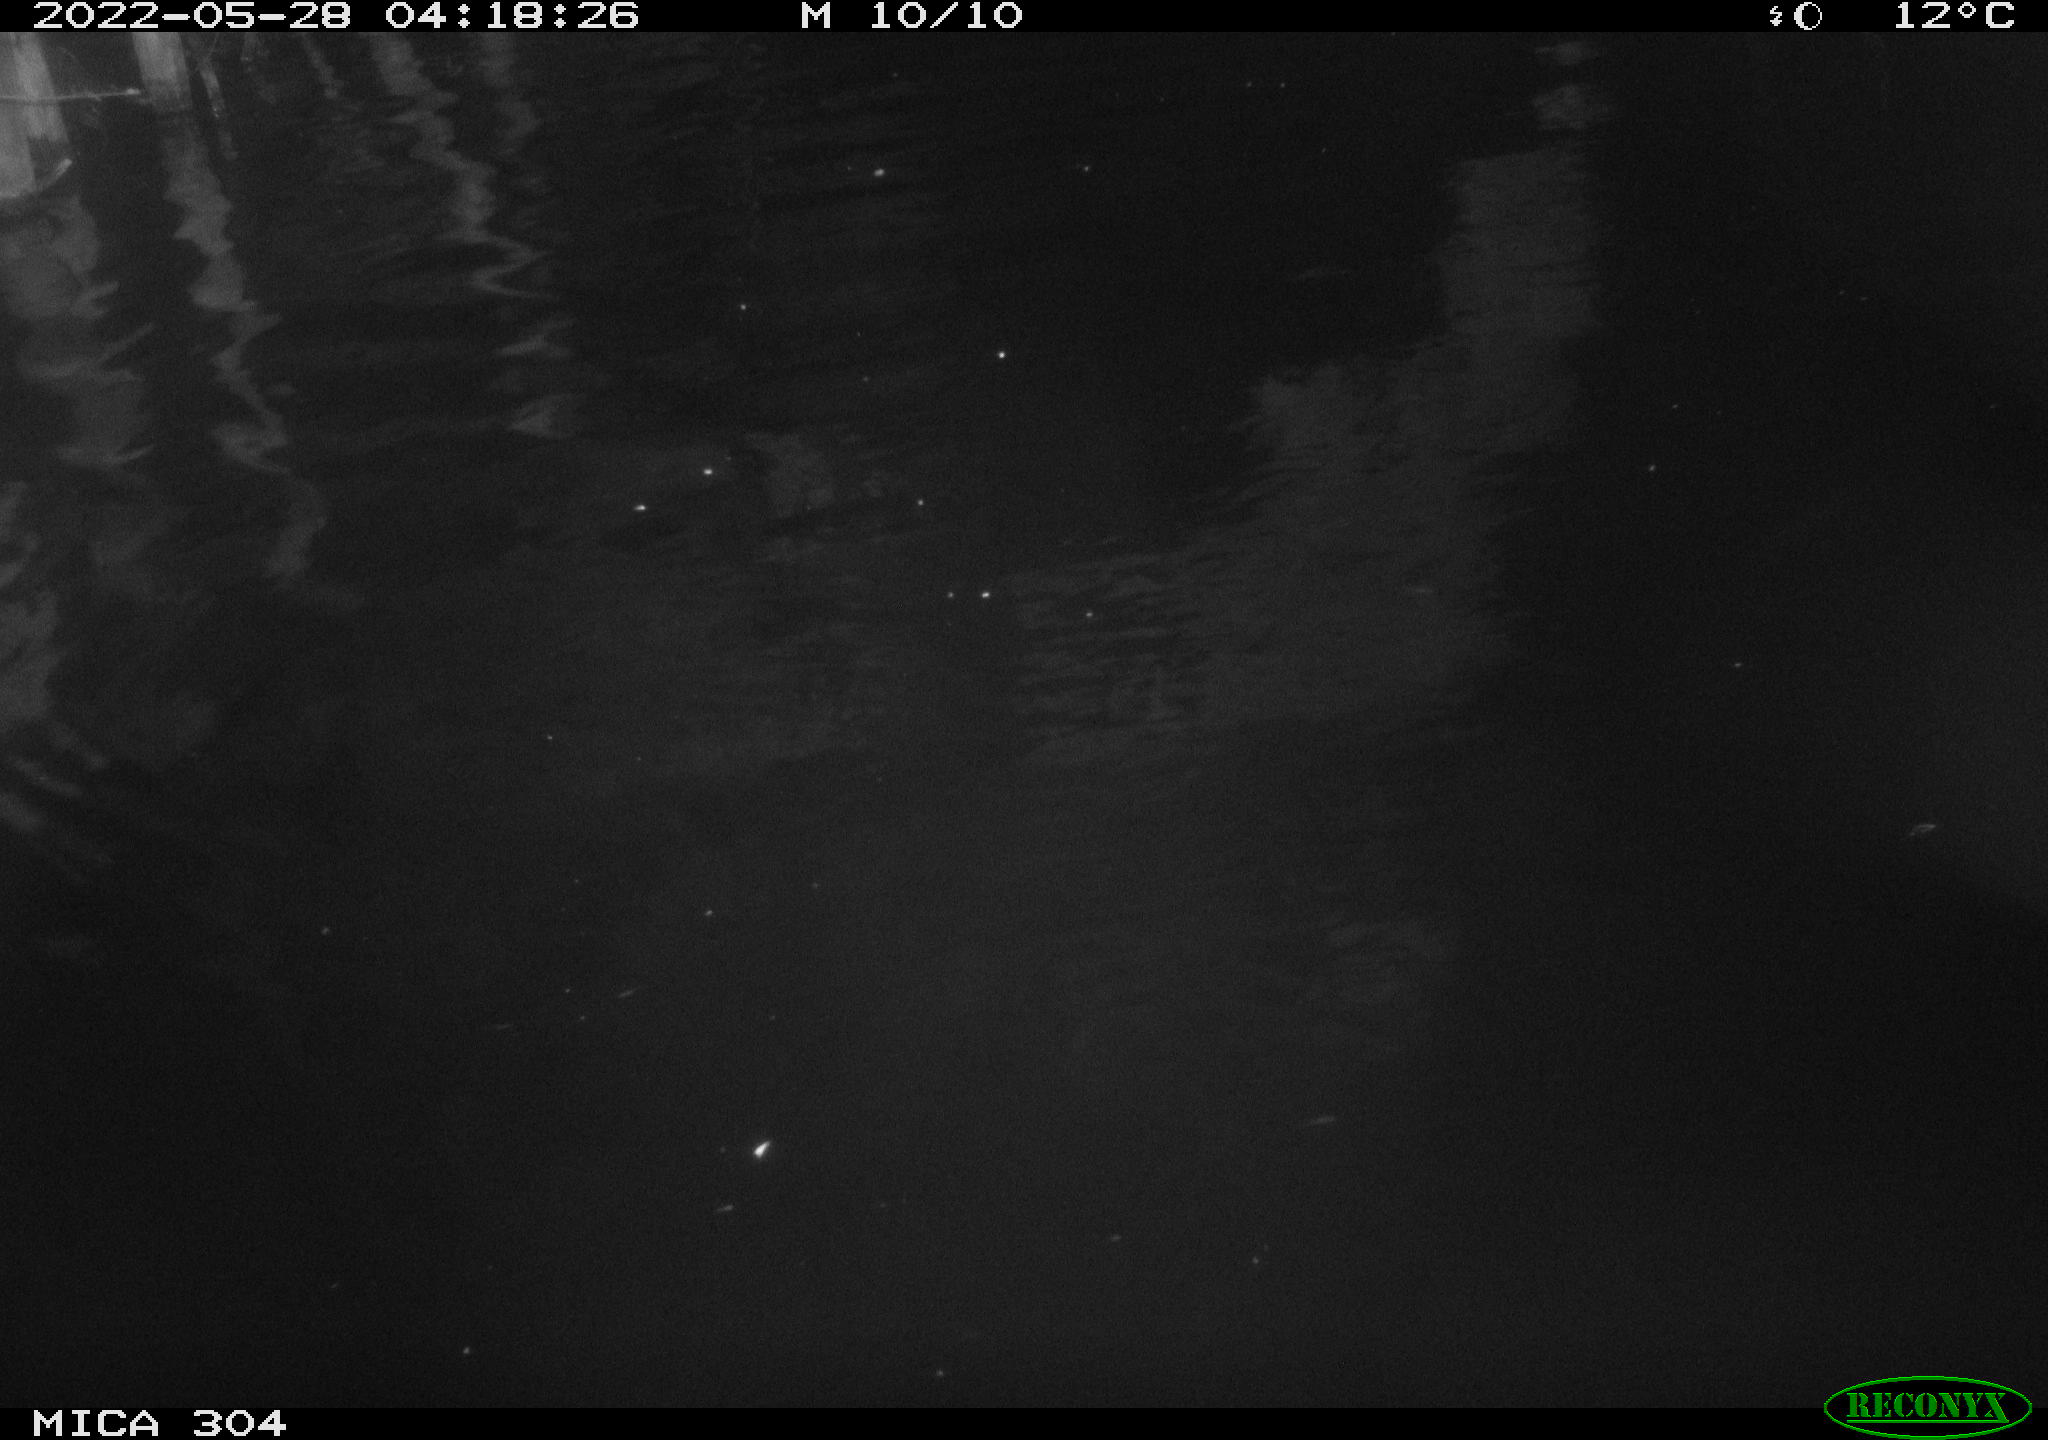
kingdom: Animalia
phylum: Chordata
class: Mammalia
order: Rodentia
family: Castoridae
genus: Castor
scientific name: Castor fiber
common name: Eurasian beaver
